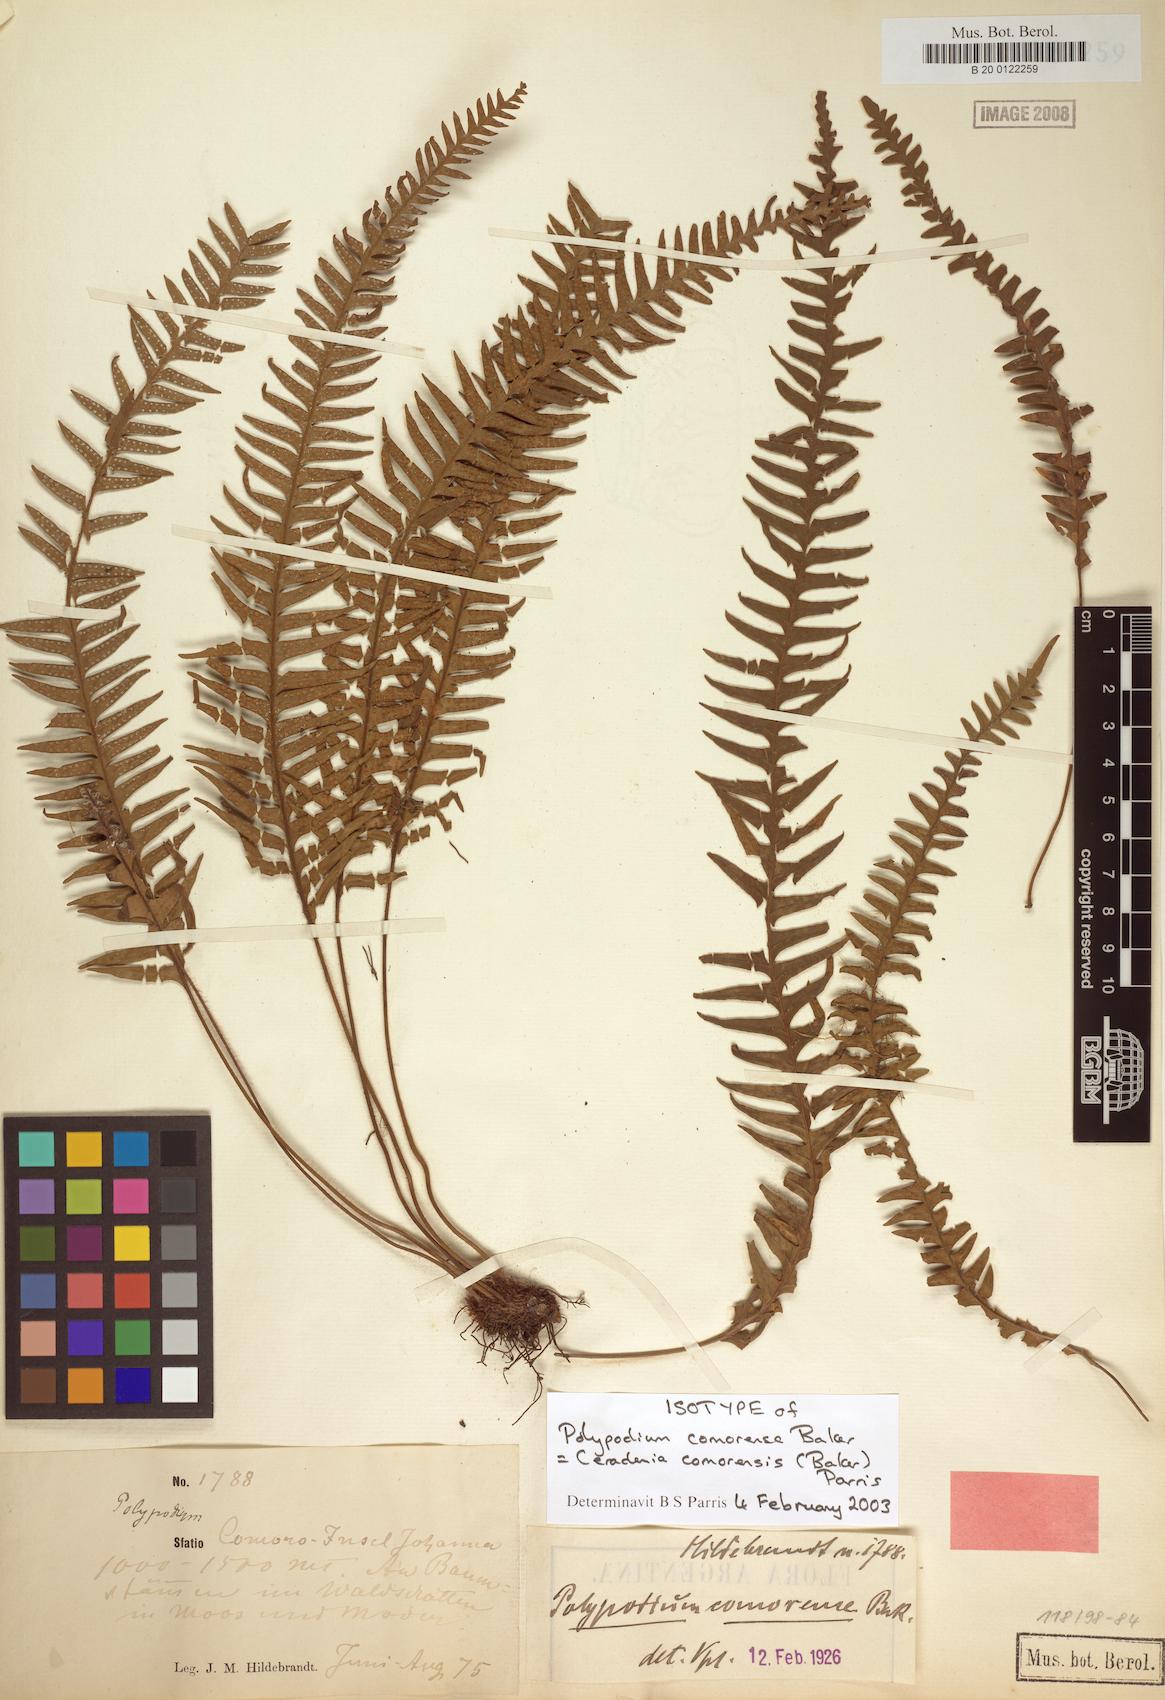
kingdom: Plantae
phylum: Tracheophyta
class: Polypodiopsida
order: Polypodiales
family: Polypodiaceae
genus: Ceradenia
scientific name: Ceradenia comorensis
